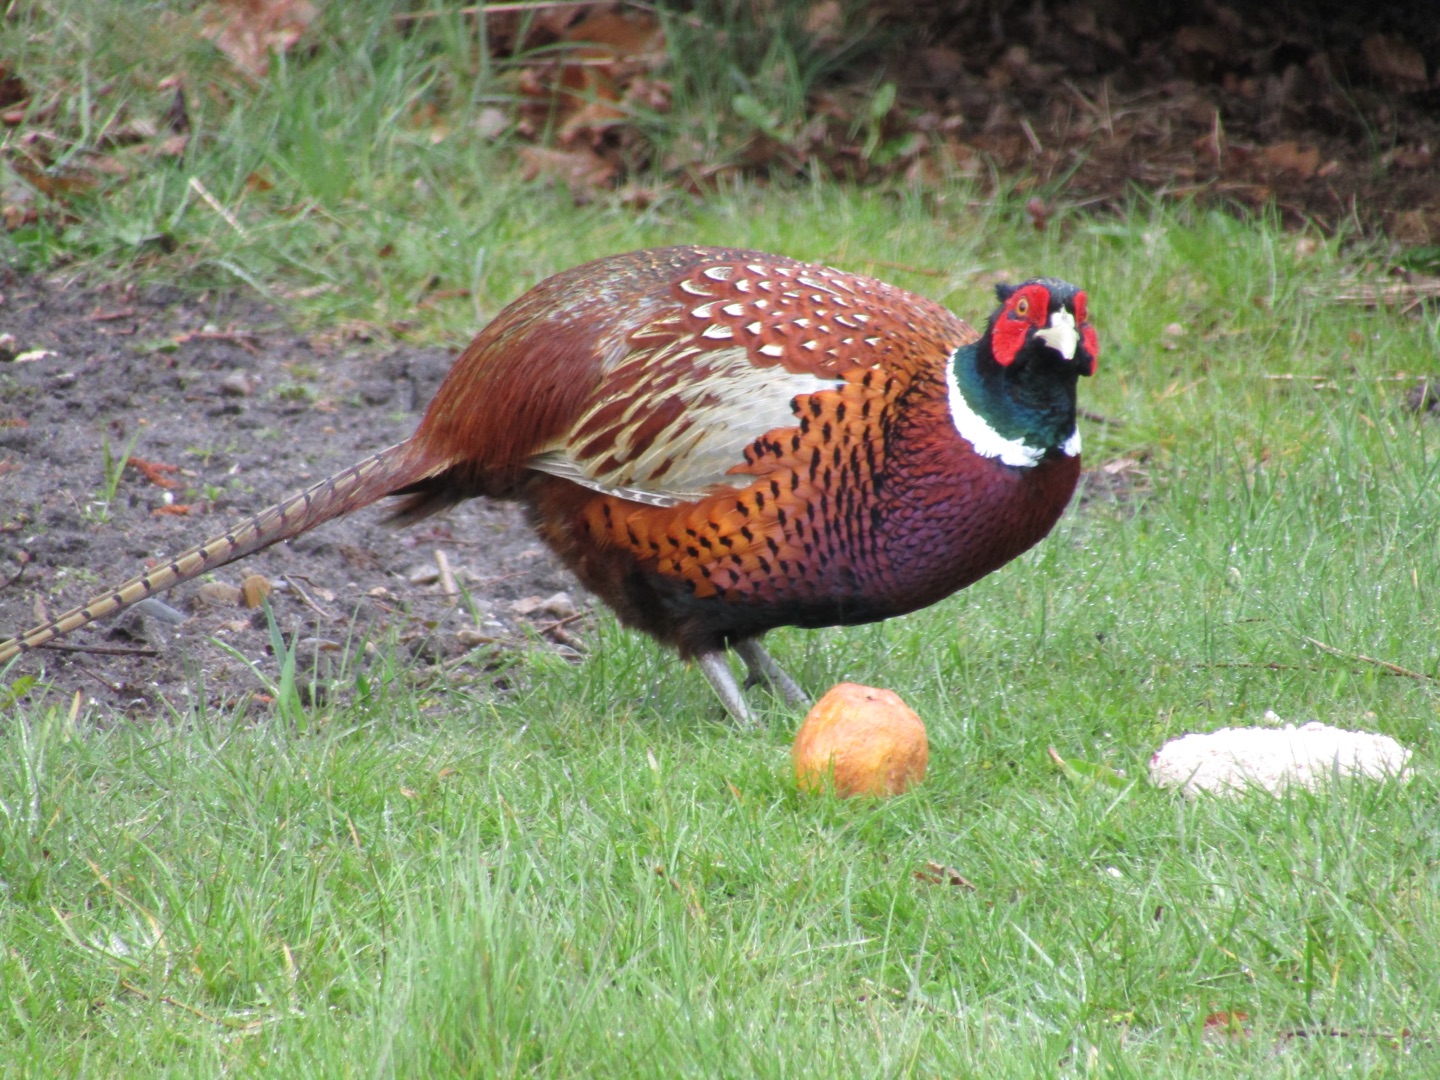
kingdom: Animalia
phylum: Chordata
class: Aves
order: Galliformes
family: Phasianidae
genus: Phasianus
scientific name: Phasianus colchicus
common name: Fasan
